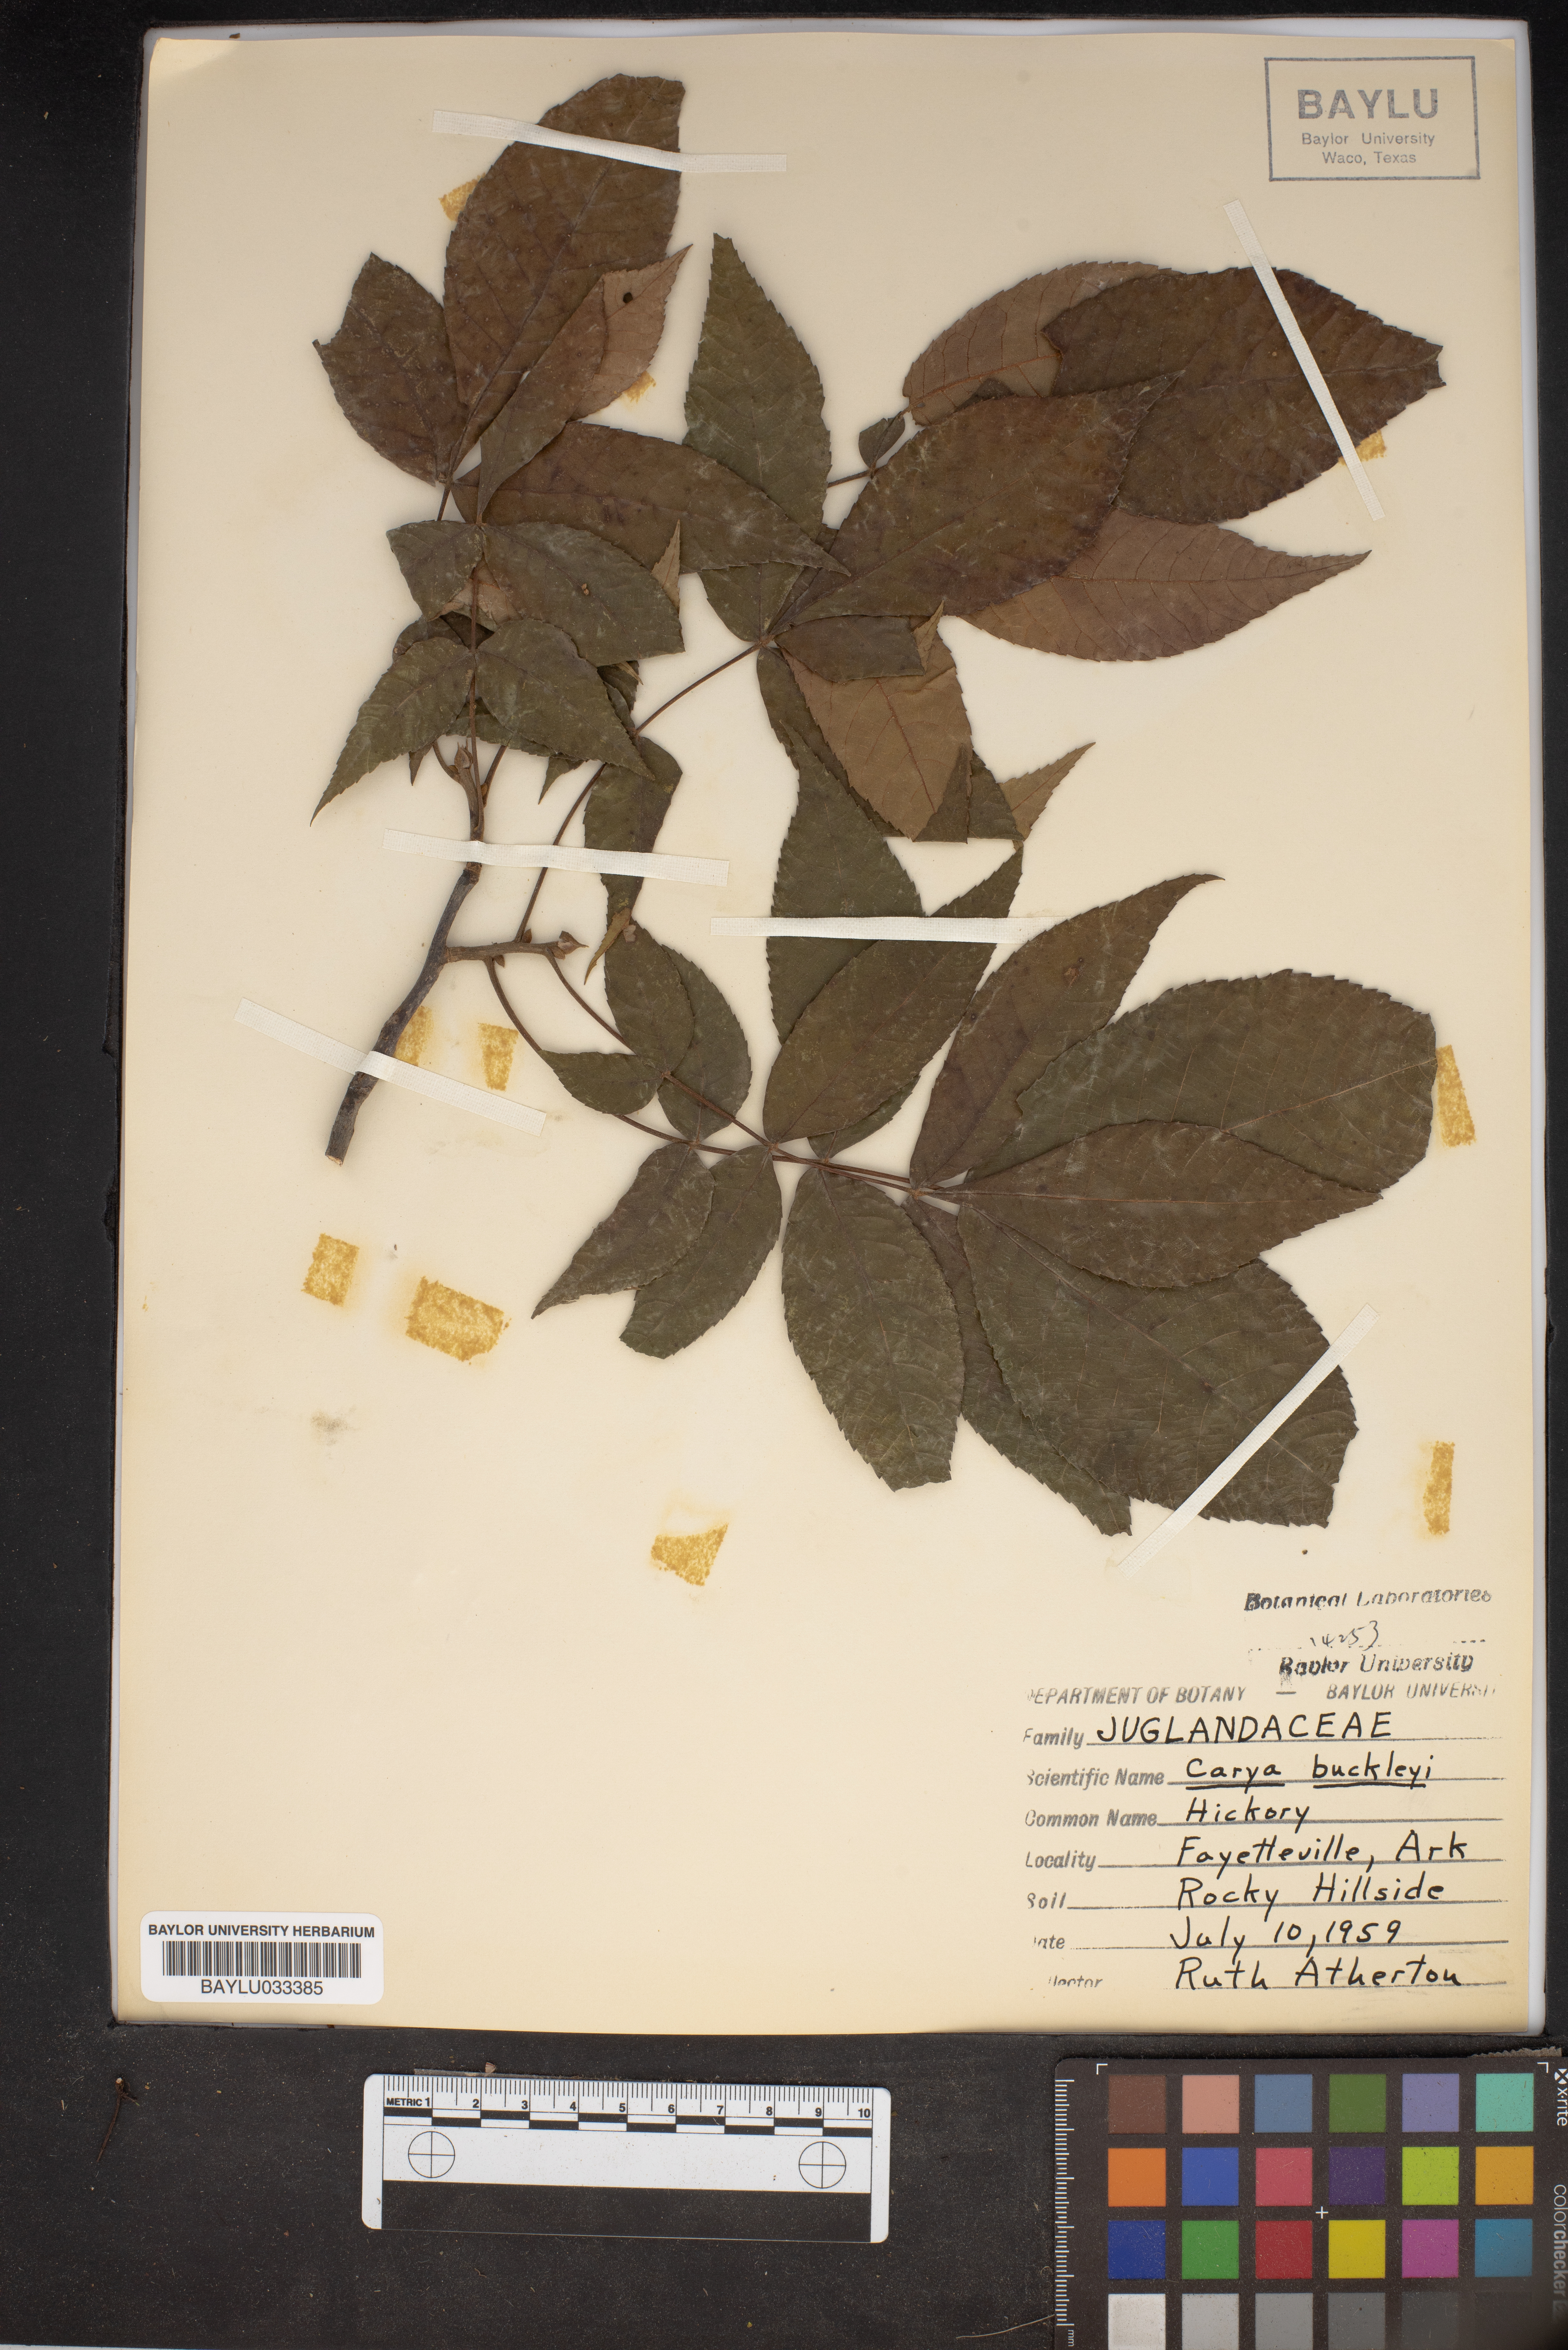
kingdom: Plantae
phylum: Tracheophyta
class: Magnoliopsida
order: Fagales
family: Juglandaceae
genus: Carya
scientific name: Carya texana
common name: Black hickory
